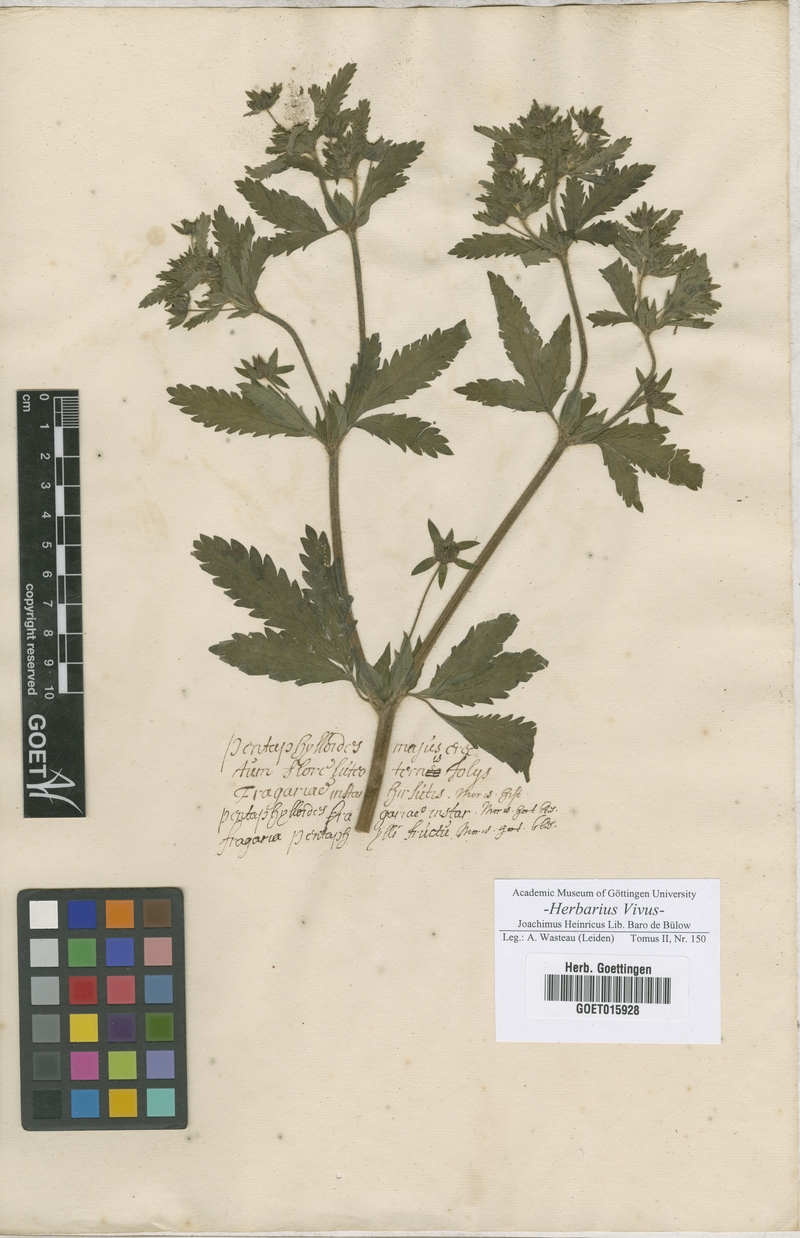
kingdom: Plantae
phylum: Tracheophyta
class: Magnoliopsida
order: Rosales
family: Rosaceae
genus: Potentilla
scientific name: Potentilla norvegica
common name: Ternate-leaved cinquefoil
